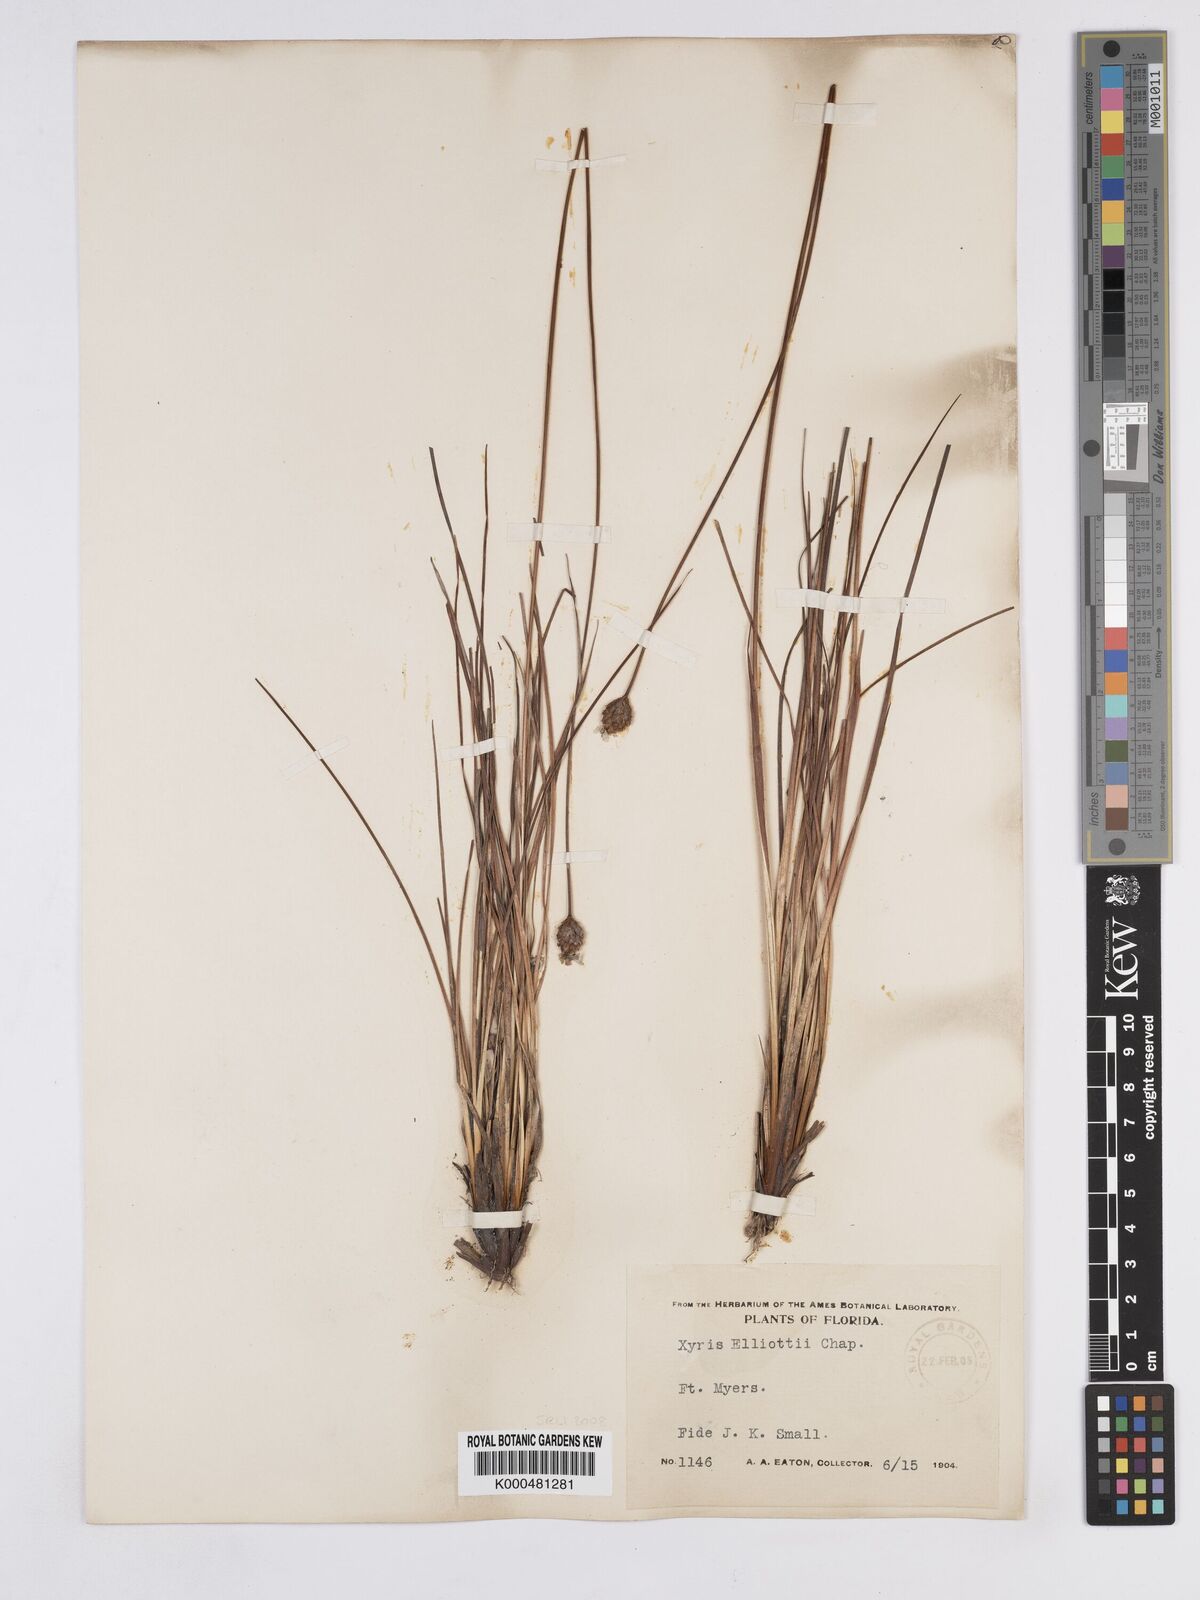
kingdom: Plantae
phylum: Tracheophyta
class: Liliopsida
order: Poales
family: Xyridaceae
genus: Xyris
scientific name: Xyris elliottii
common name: Elliot's yelloweyed grass
